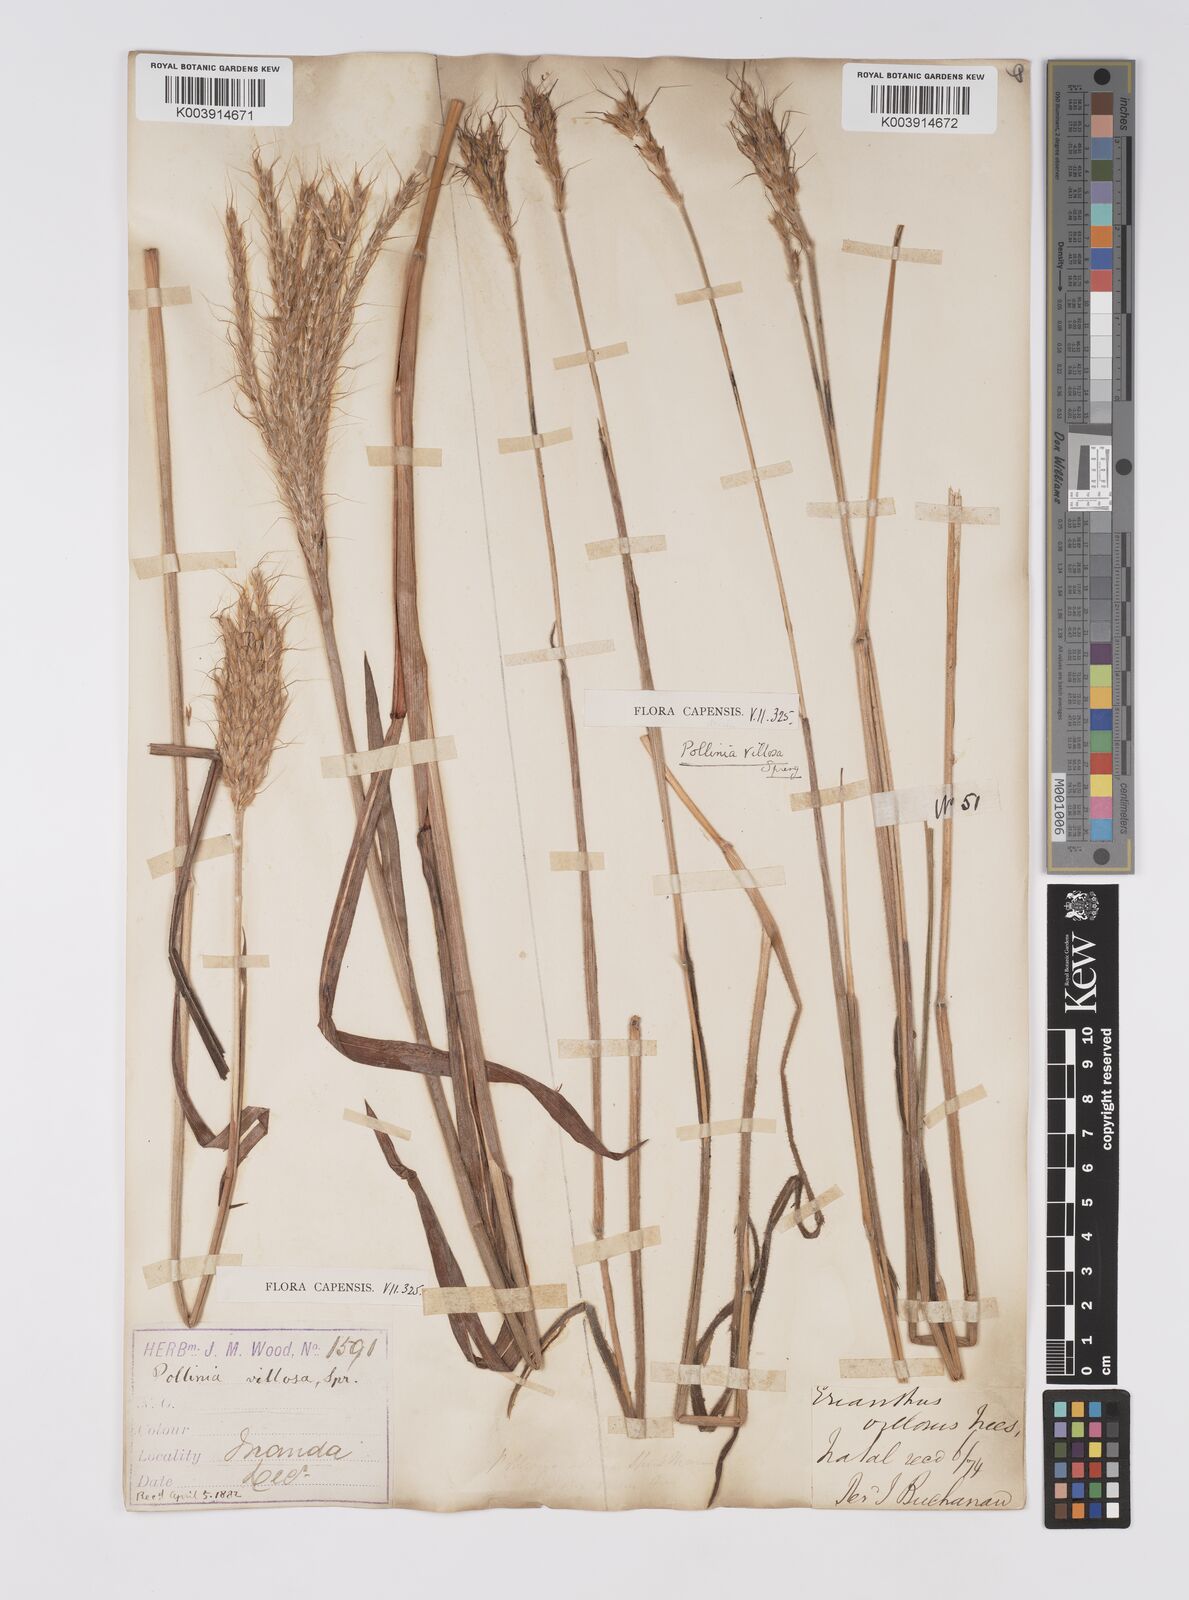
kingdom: Plantae
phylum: Tracheophyta
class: Liliopsida
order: Poales
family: Poaceae
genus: Eulalia
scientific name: Eulalia villosa
